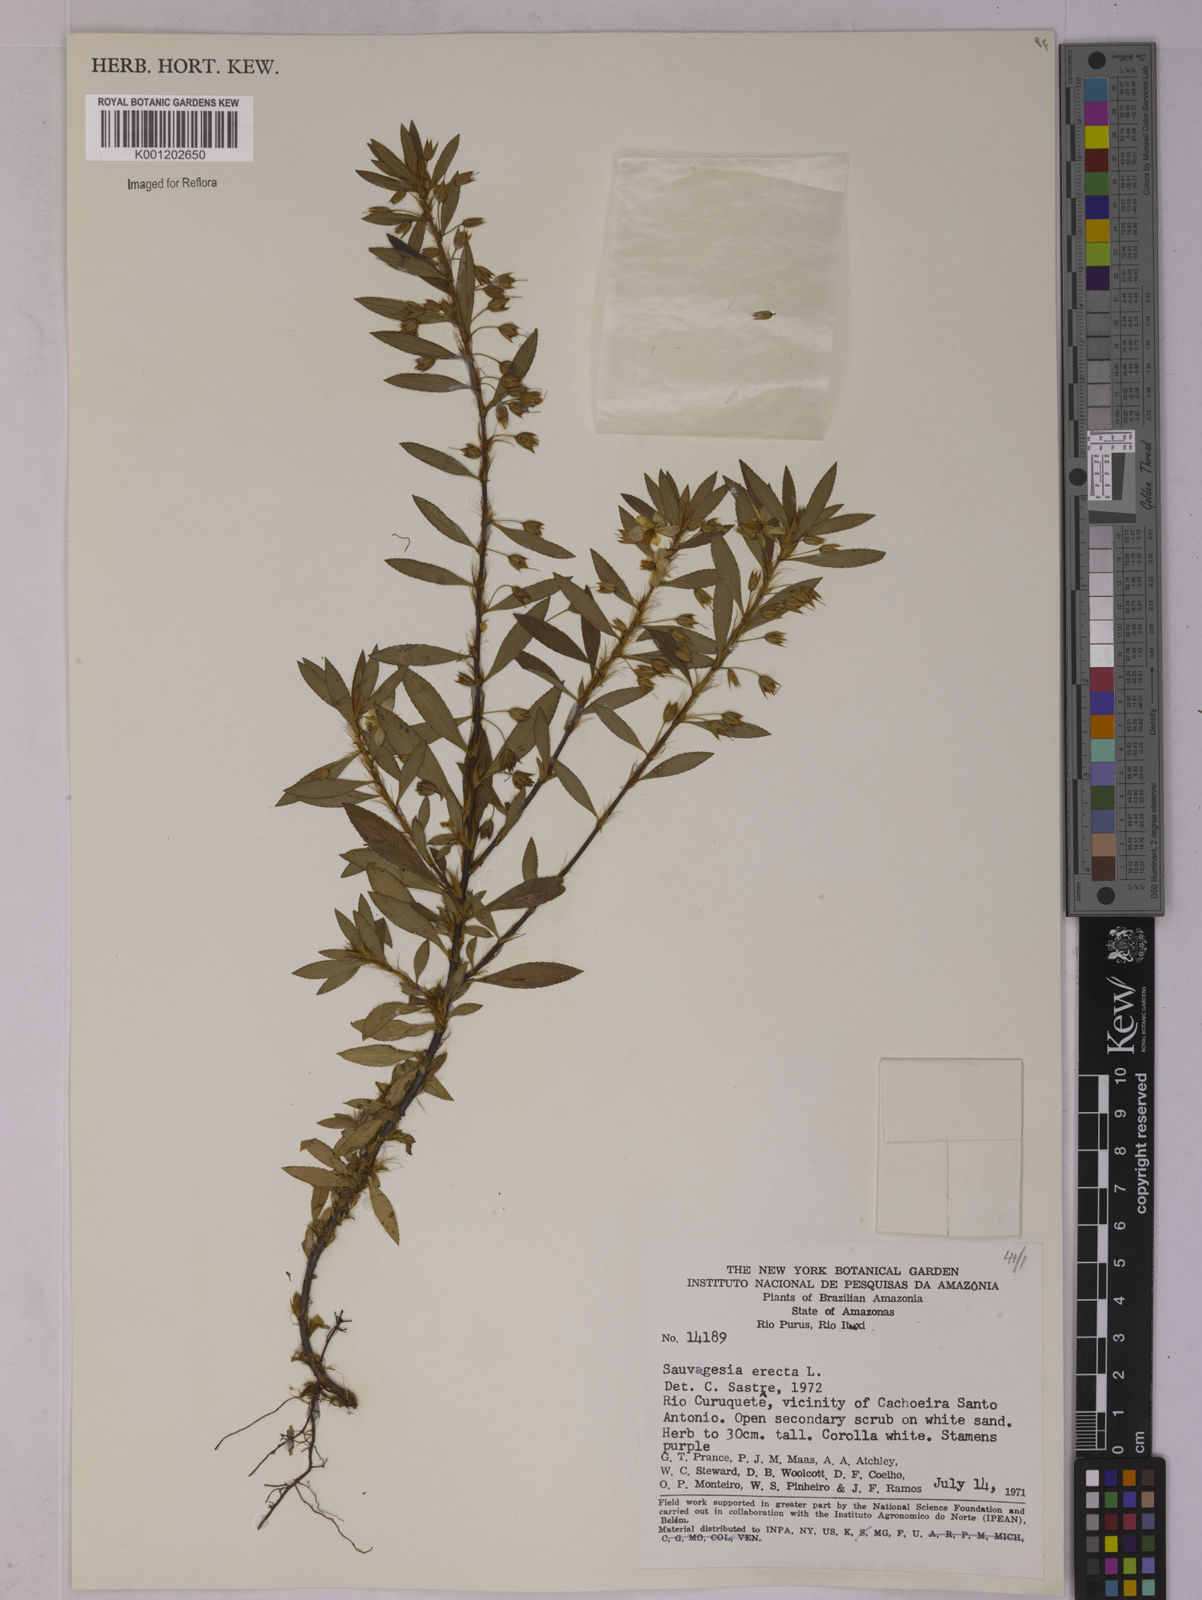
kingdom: Plantae
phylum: Tracheophyta
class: Magnoliopsida
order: Malpighiales
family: Ochnaceae
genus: Sauvagesia
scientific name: Sauvagesia erecta
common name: Creole tea
